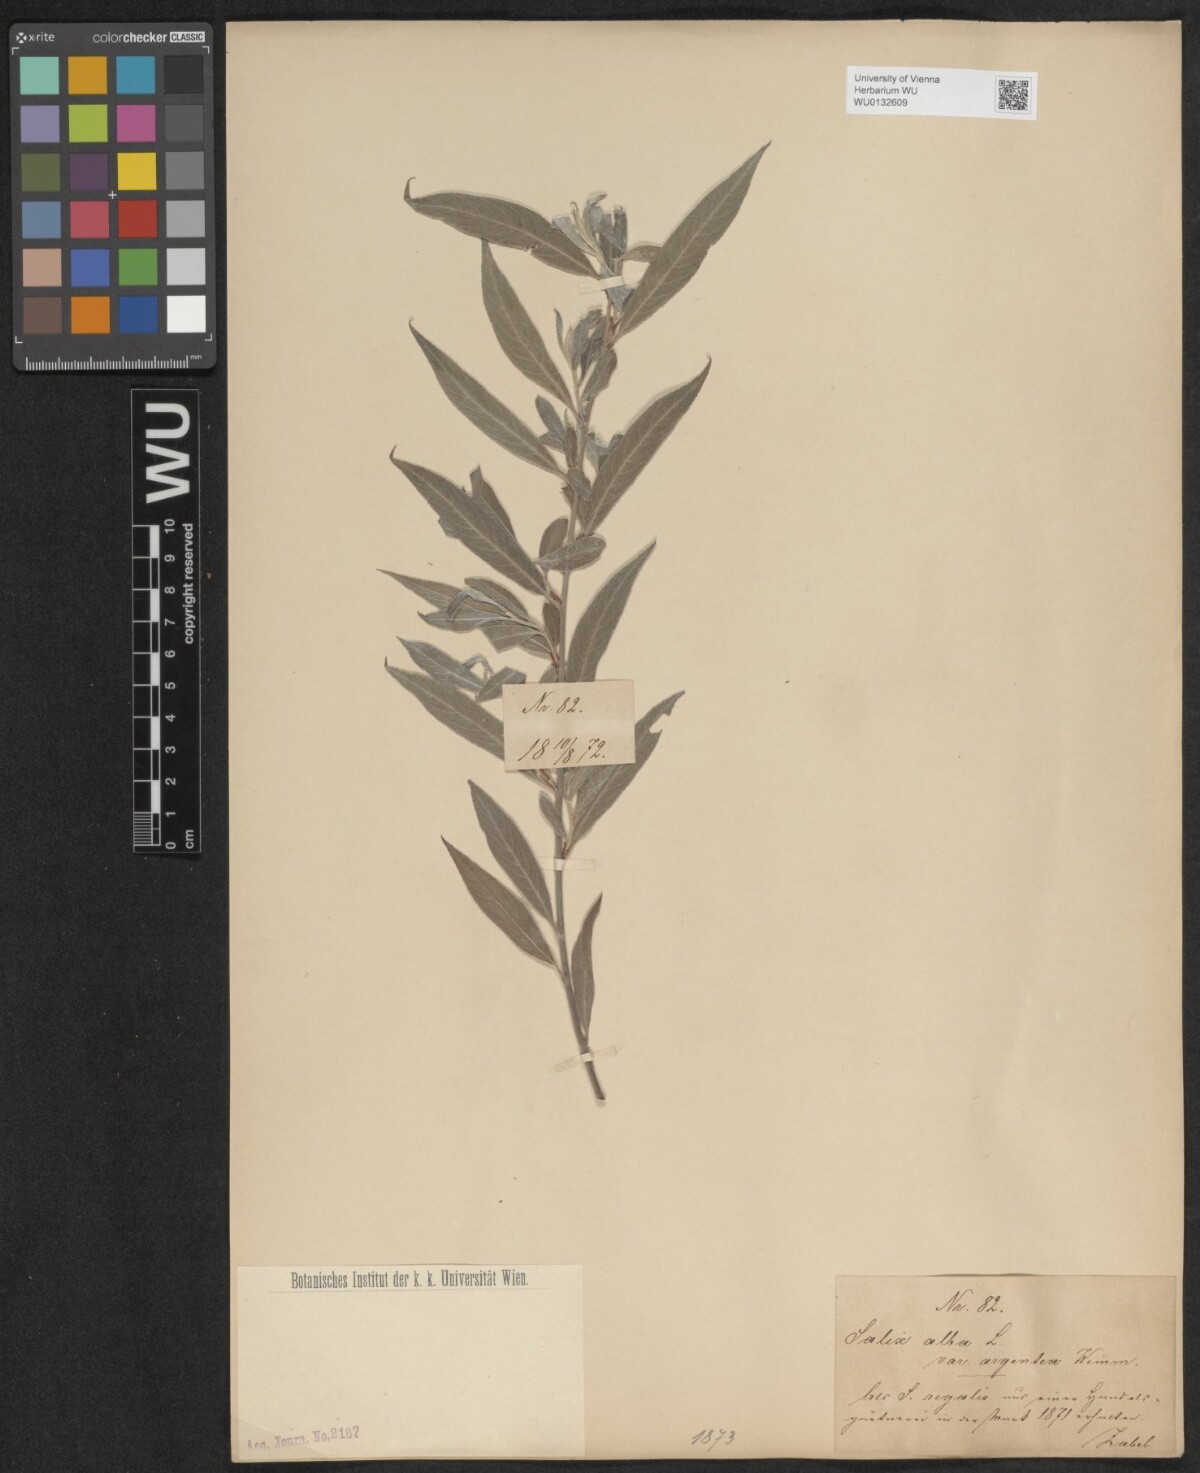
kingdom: Plantae
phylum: Tracheophyta
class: Magnoliopsida
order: Malpighiales
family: Salicaceae
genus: Salix
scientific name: Salix alba
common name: White willow
